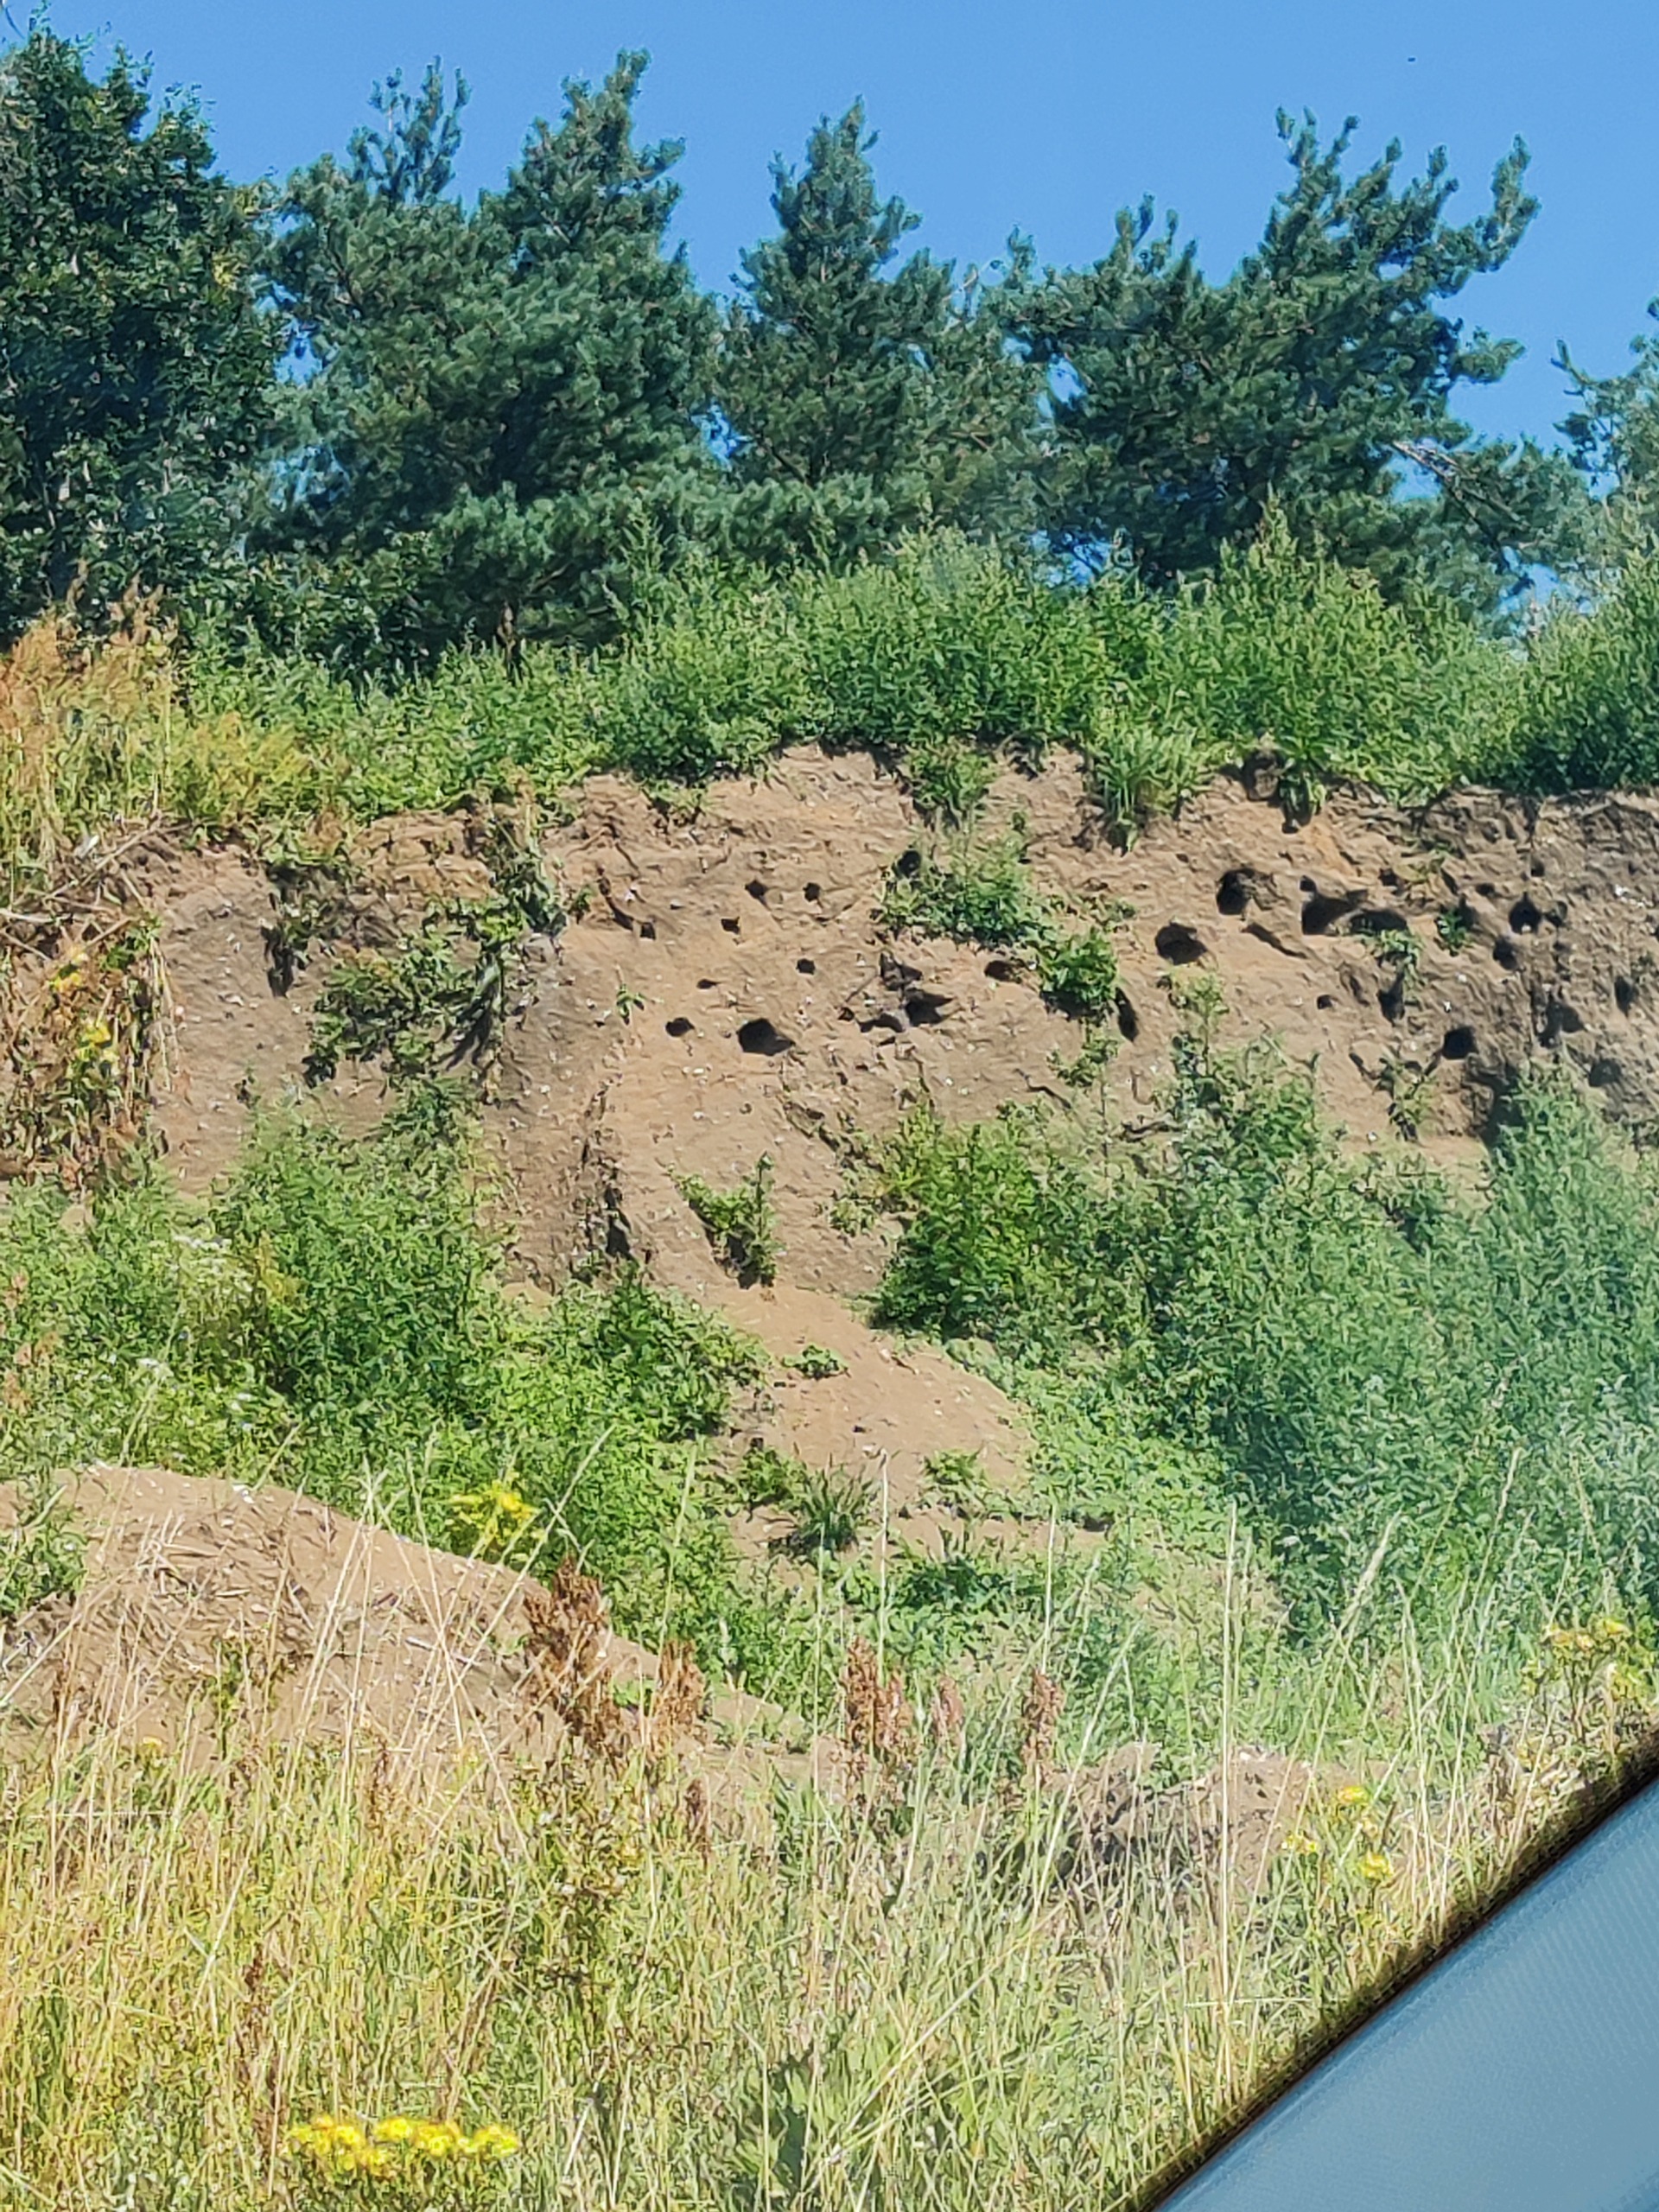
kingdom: Animalia
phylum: Chordata
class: Aves
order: Passeriformes
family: Hirundinidae
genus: Riparia
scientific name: Riparia riparia
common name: Digesvale
